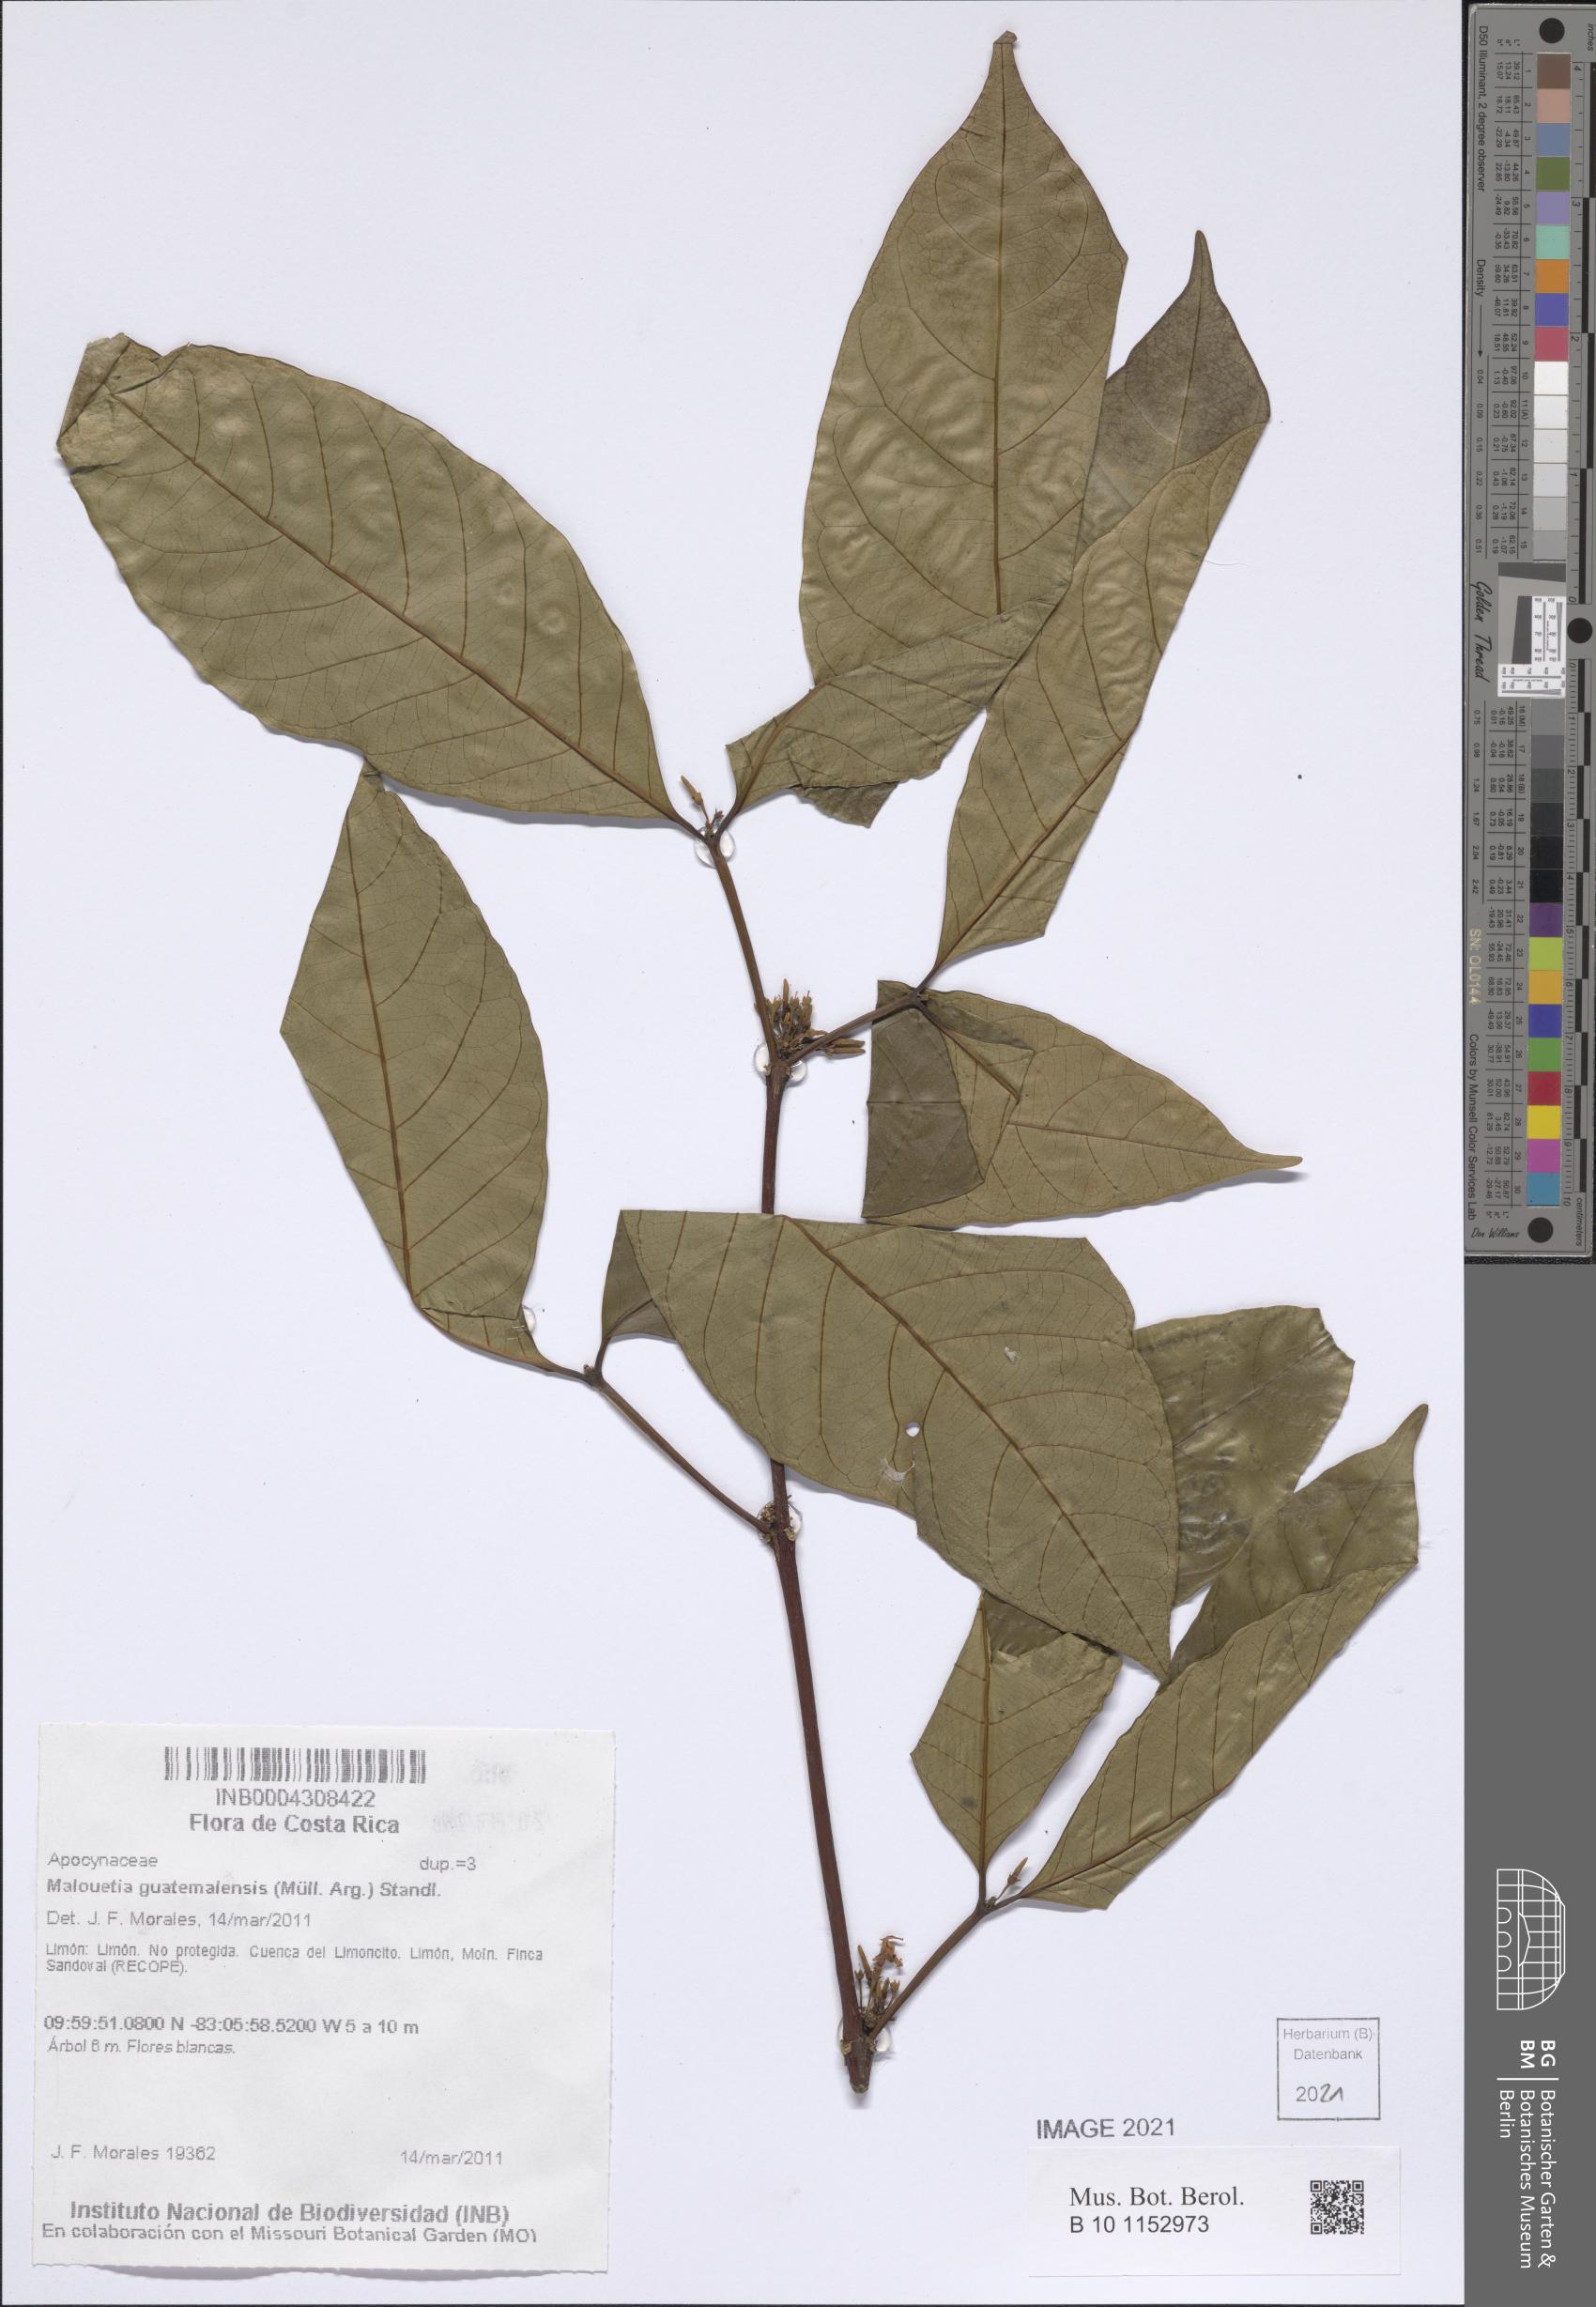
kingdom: Plantae
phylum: Tracheophyta
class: Magnoliopsida
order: Gentianales
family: Apocynaceae
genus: Malouetia
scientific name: Malouetia guatemalensis
